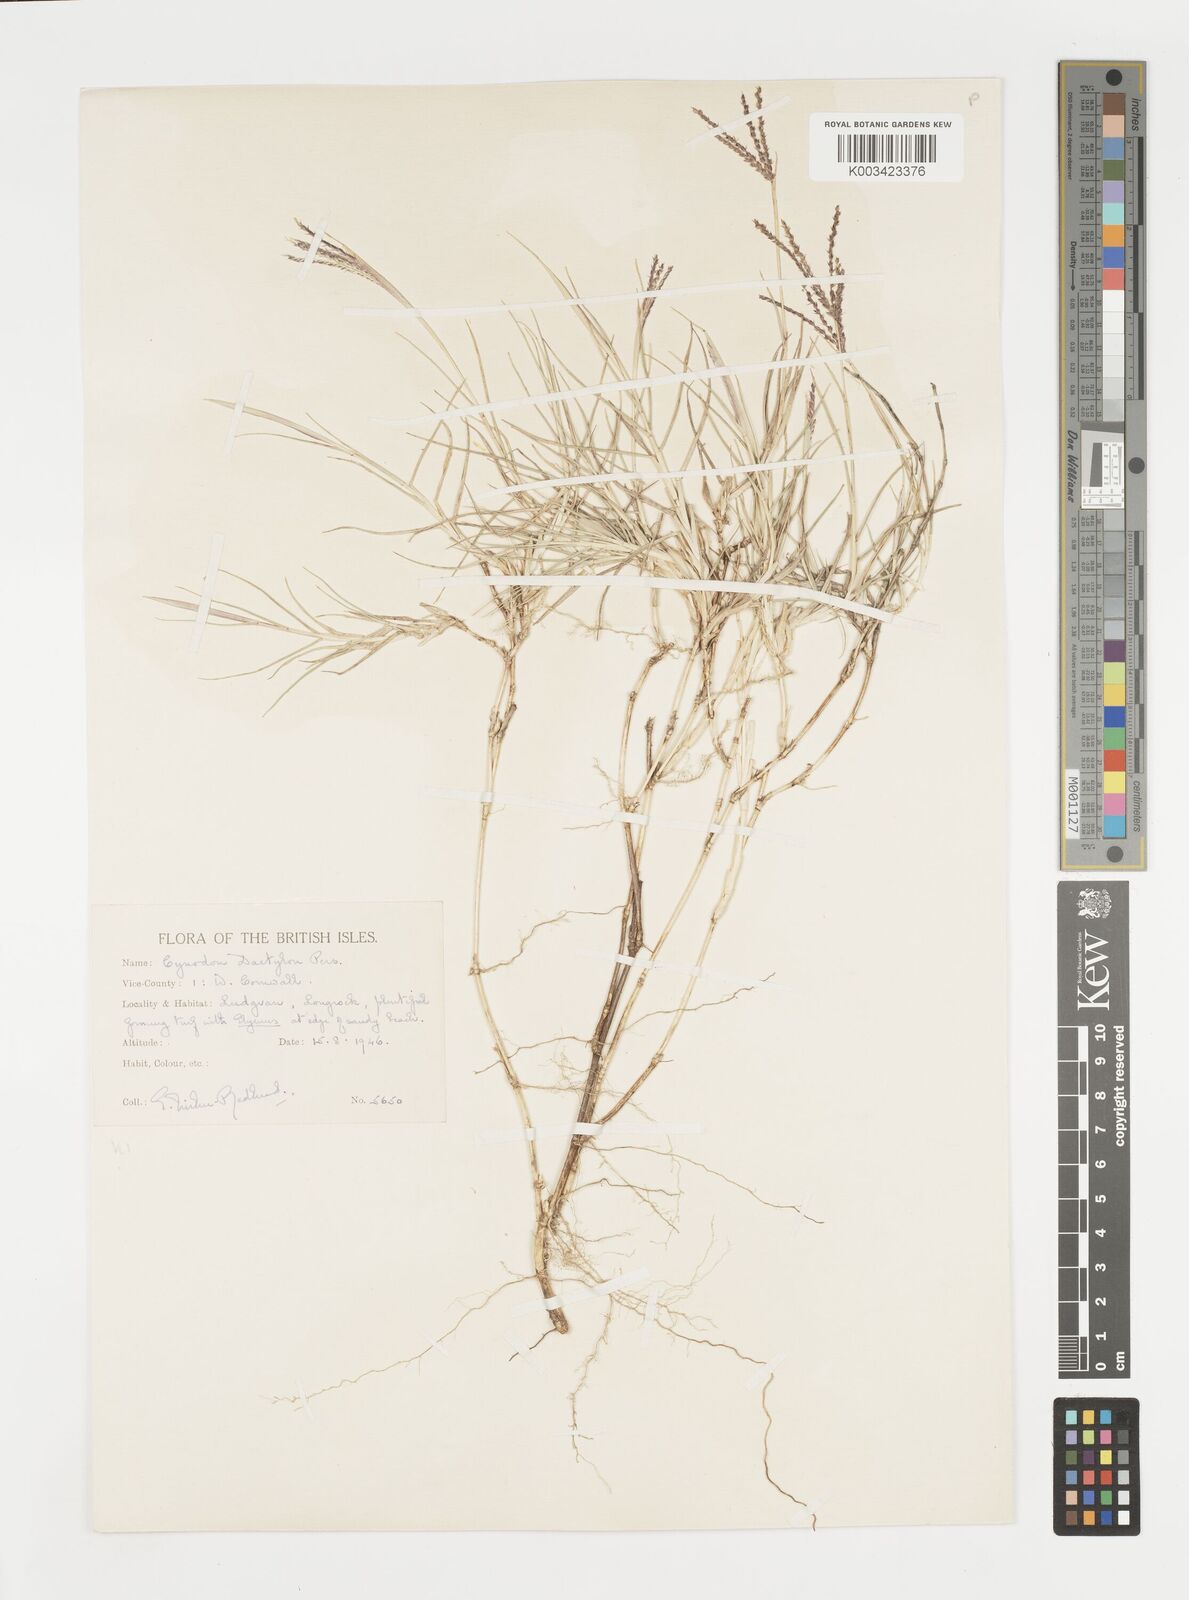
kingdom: Plantae
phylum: Tracheophyta
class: Liliopsida
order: Poales
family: Poaceae
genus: Cynodon
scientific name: Cynodon dactylon
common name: Bermuda grass
